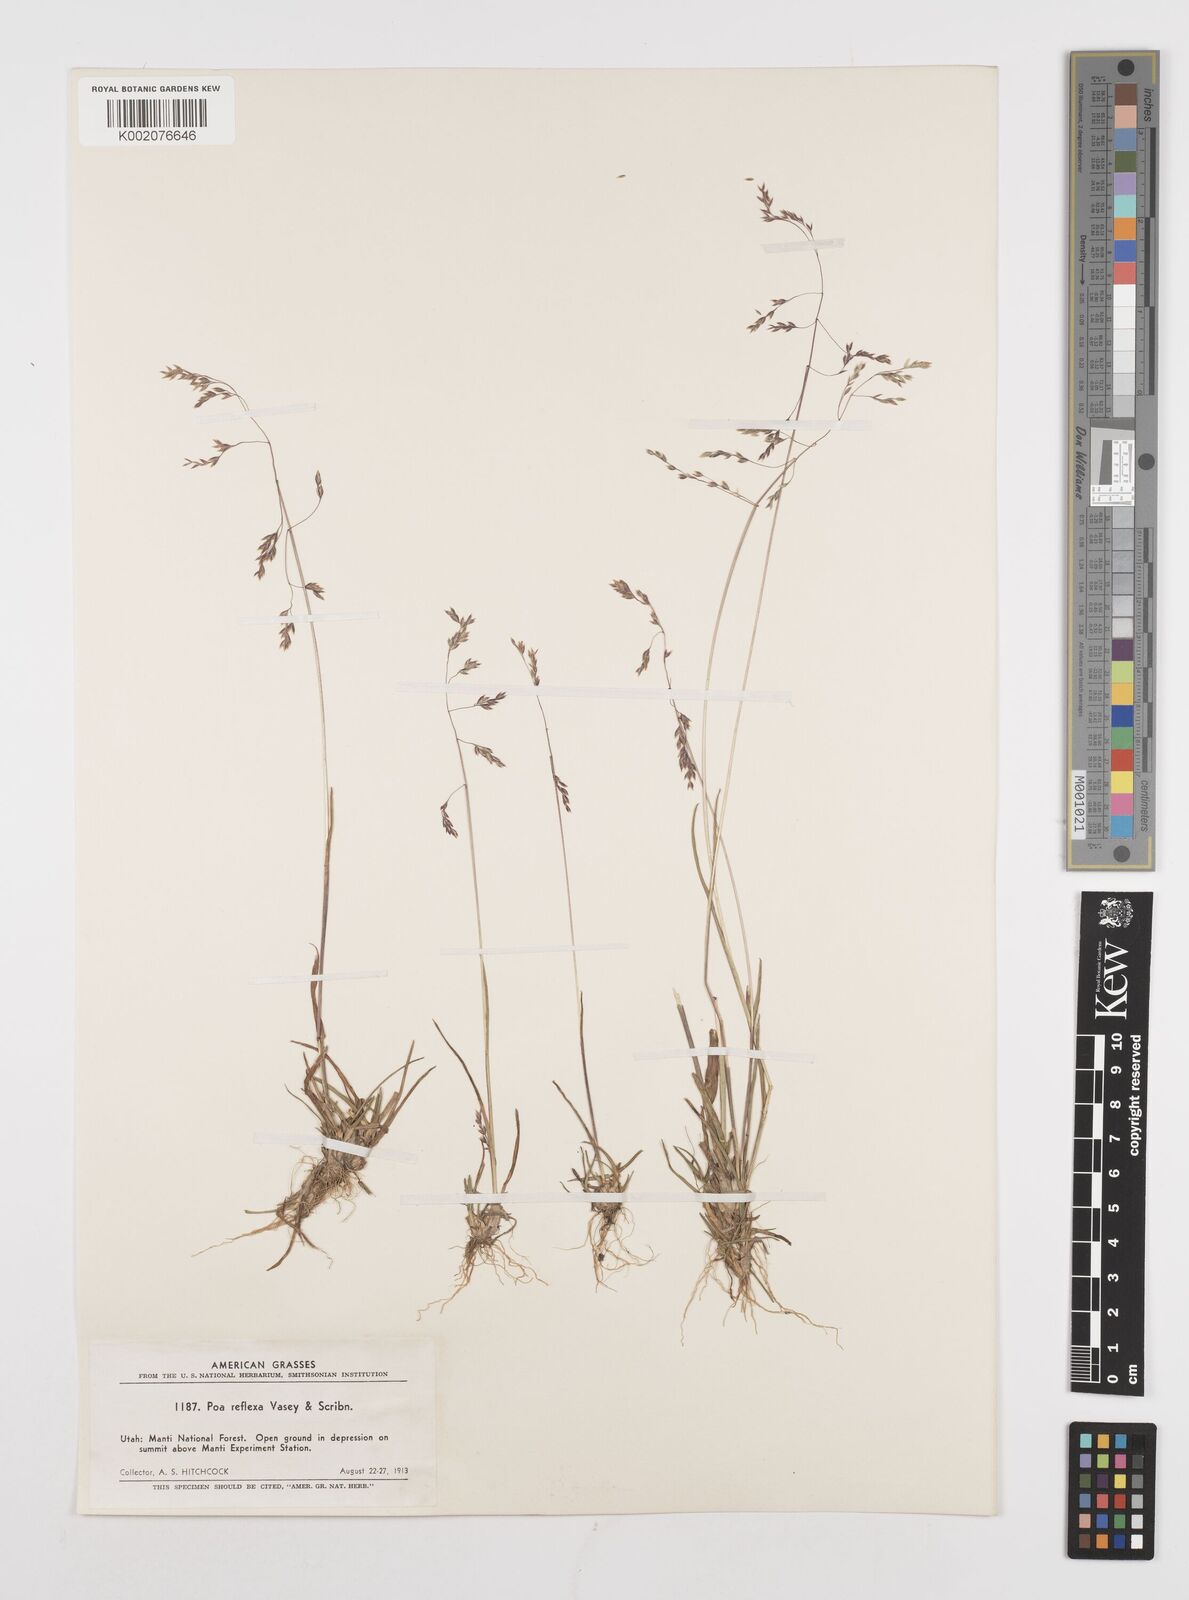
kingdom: Plantae
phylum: Tracheophyta
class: Liliopsida
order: Poales
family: Poaceae
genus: Poa
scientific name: Poa reflexa
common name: Nodding bluegrass
